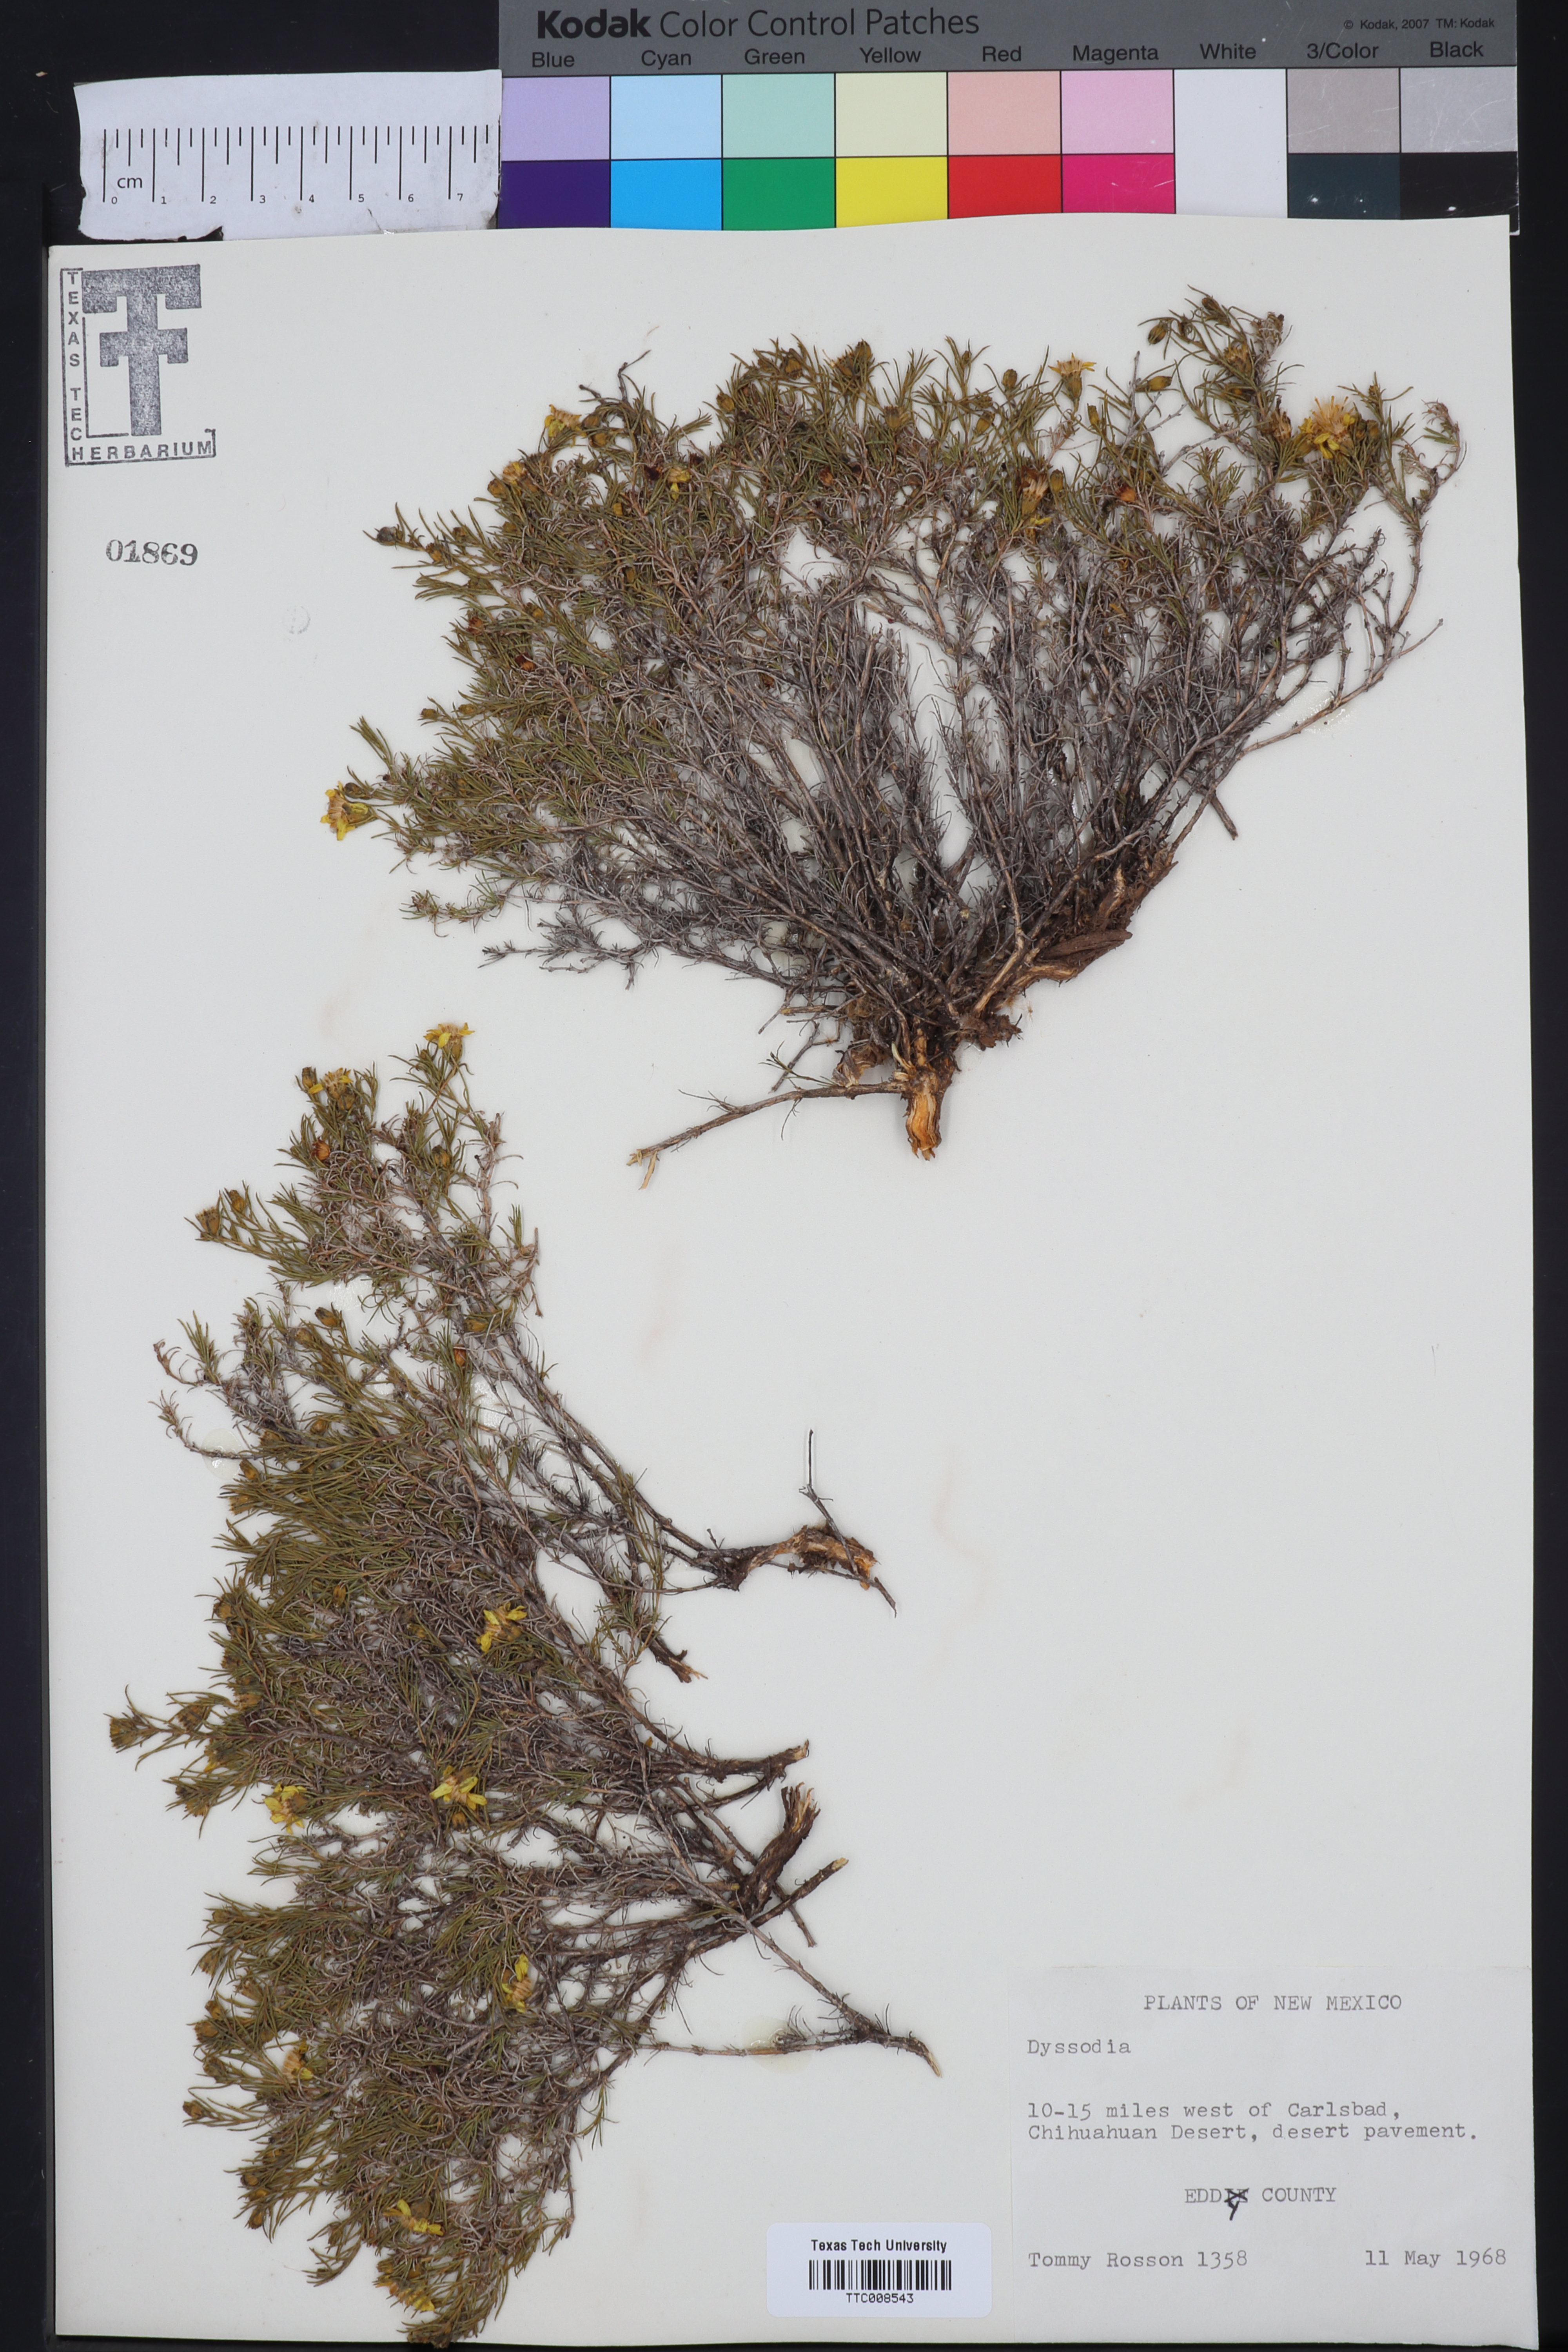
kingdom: Plantae
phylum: Tracheophyta
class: Magnoliopsida
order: Asterales
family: Asteraceae
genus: Dyssodia
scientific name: Dyssodia
